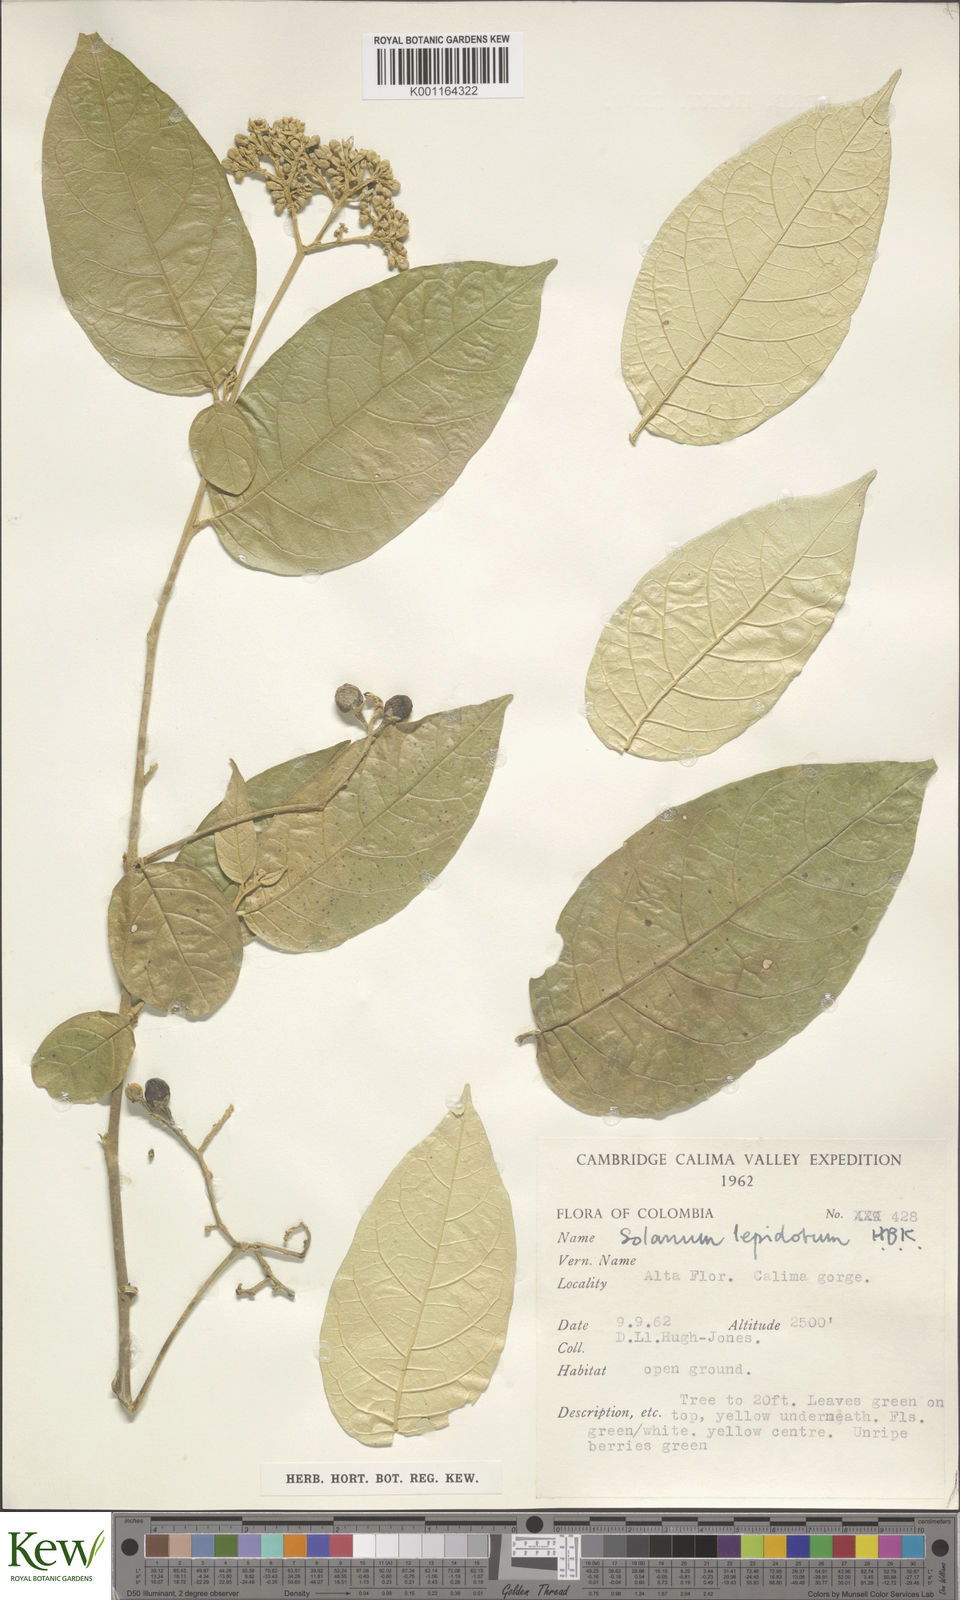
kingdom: Plantae
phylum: Tracheophyta
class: Magnoliopsida
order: Solanales
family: Solanaceae
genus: Solanum
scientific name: Solanum lepidotum
